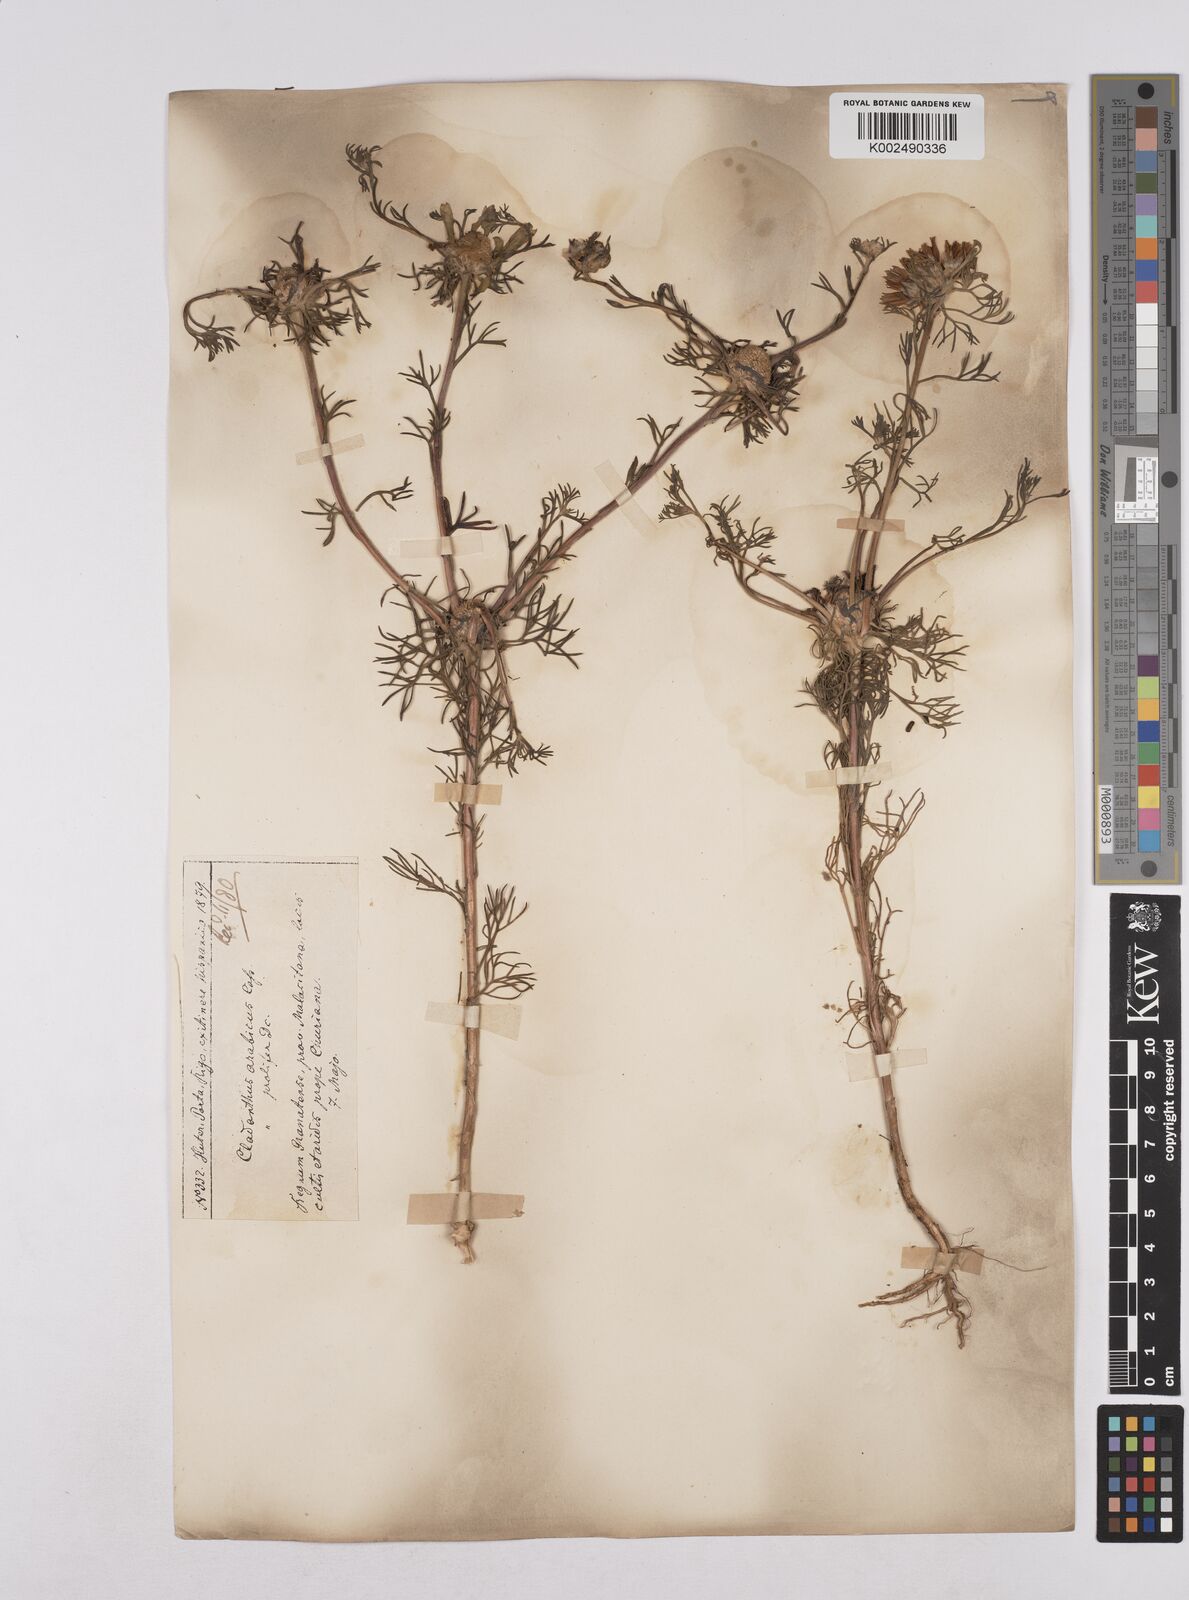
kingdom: Plantae
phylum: Tracheophyta
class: Magnoliopsida
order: Asterales
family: Asteraceae
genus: Cladanthus
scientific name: Cladanthus arabicus
